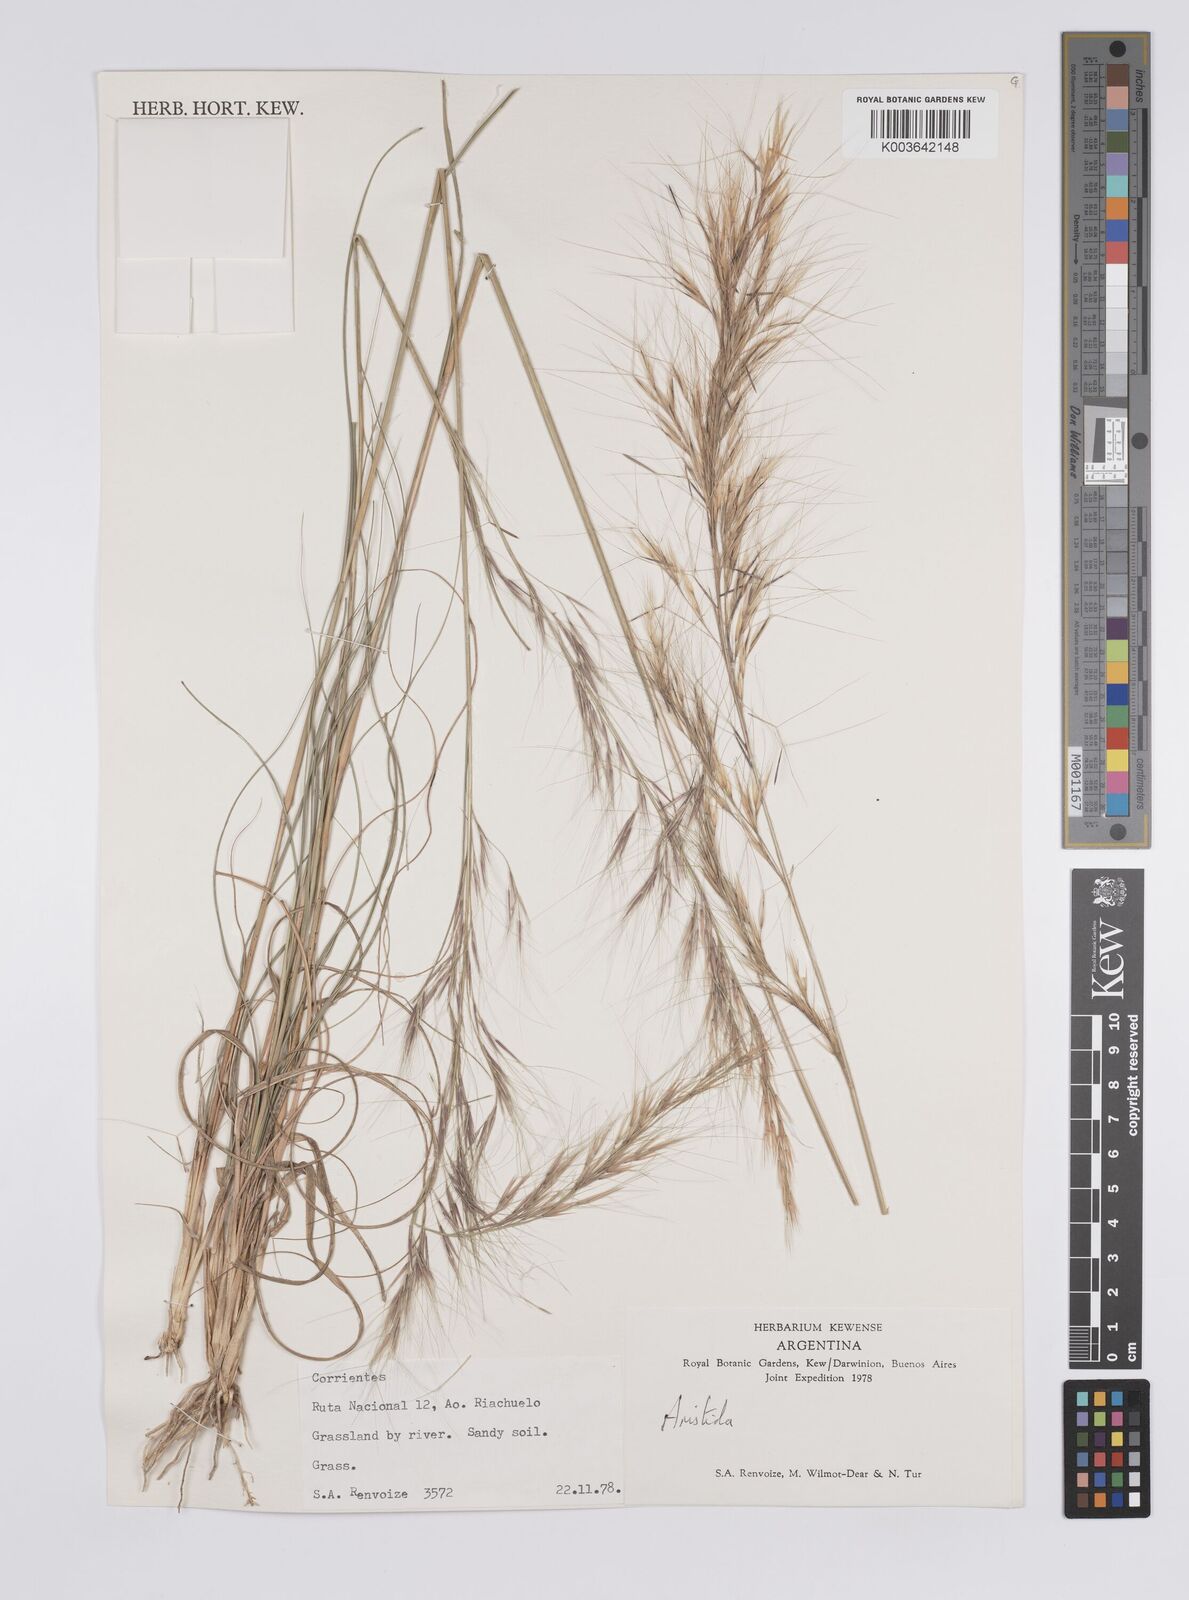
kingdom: Plantae
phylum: Tracheophyta
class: Liliopsida
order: Poales
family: Poaceae
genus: Aristida
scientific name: Aristida
